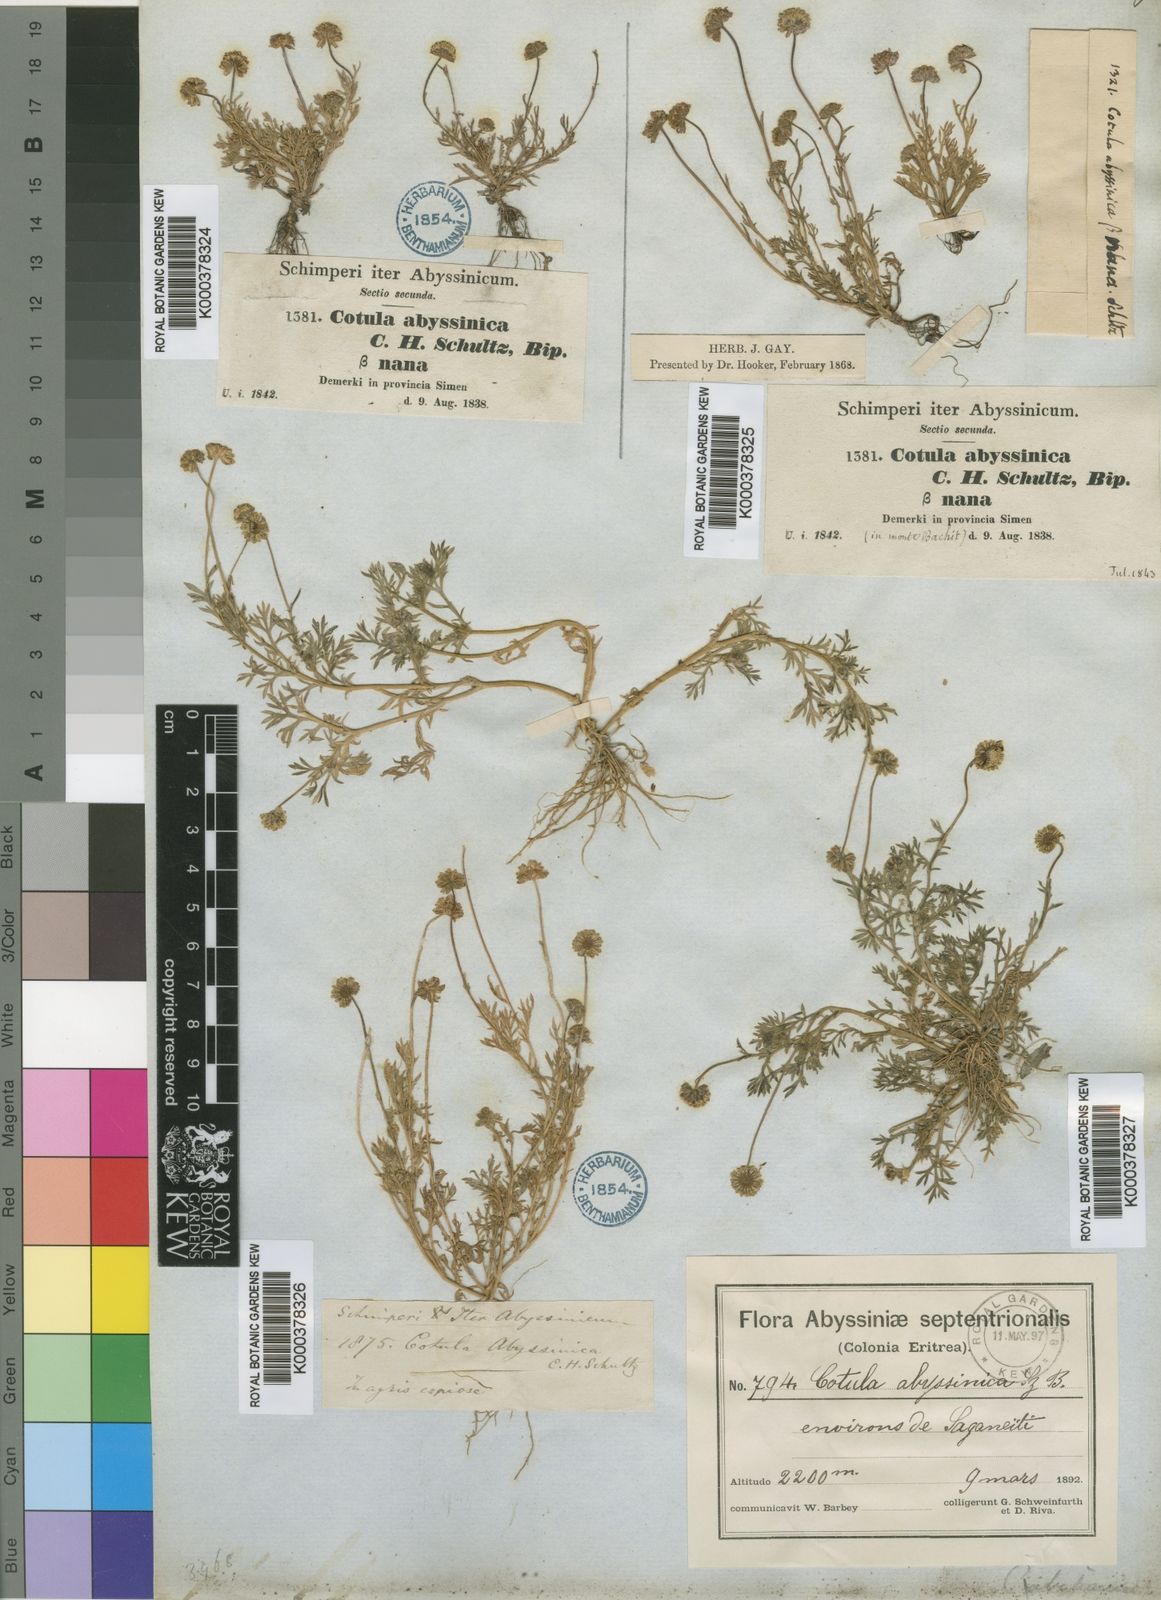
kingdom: Plantae
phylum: Tracheophyta
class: Magnoliopsida
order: Asterales
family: Asteraceae
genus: Cotula
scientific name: Cotula abyssinica
